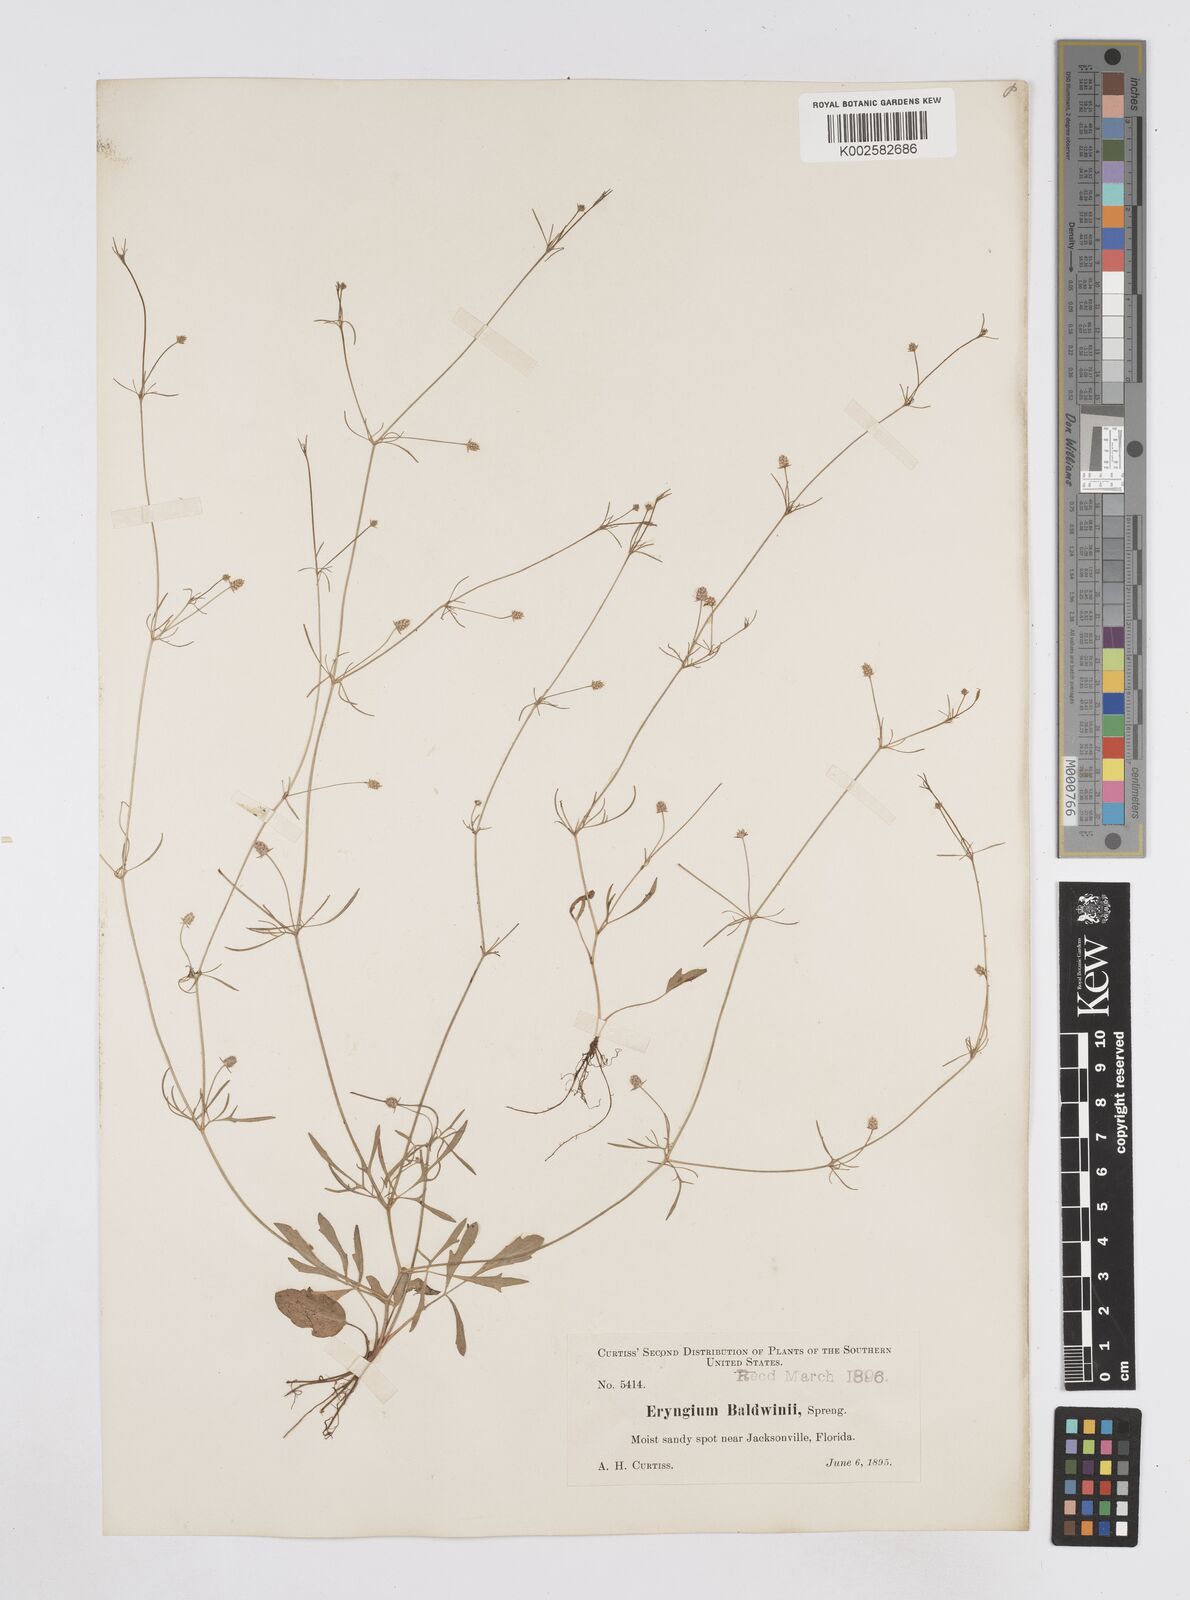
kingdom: Plantae
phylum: Tracheophyta
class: Magnoliopsida
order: Apiales
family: Apiaceae
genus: Eryngium
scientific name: Eryngium baldwinii
